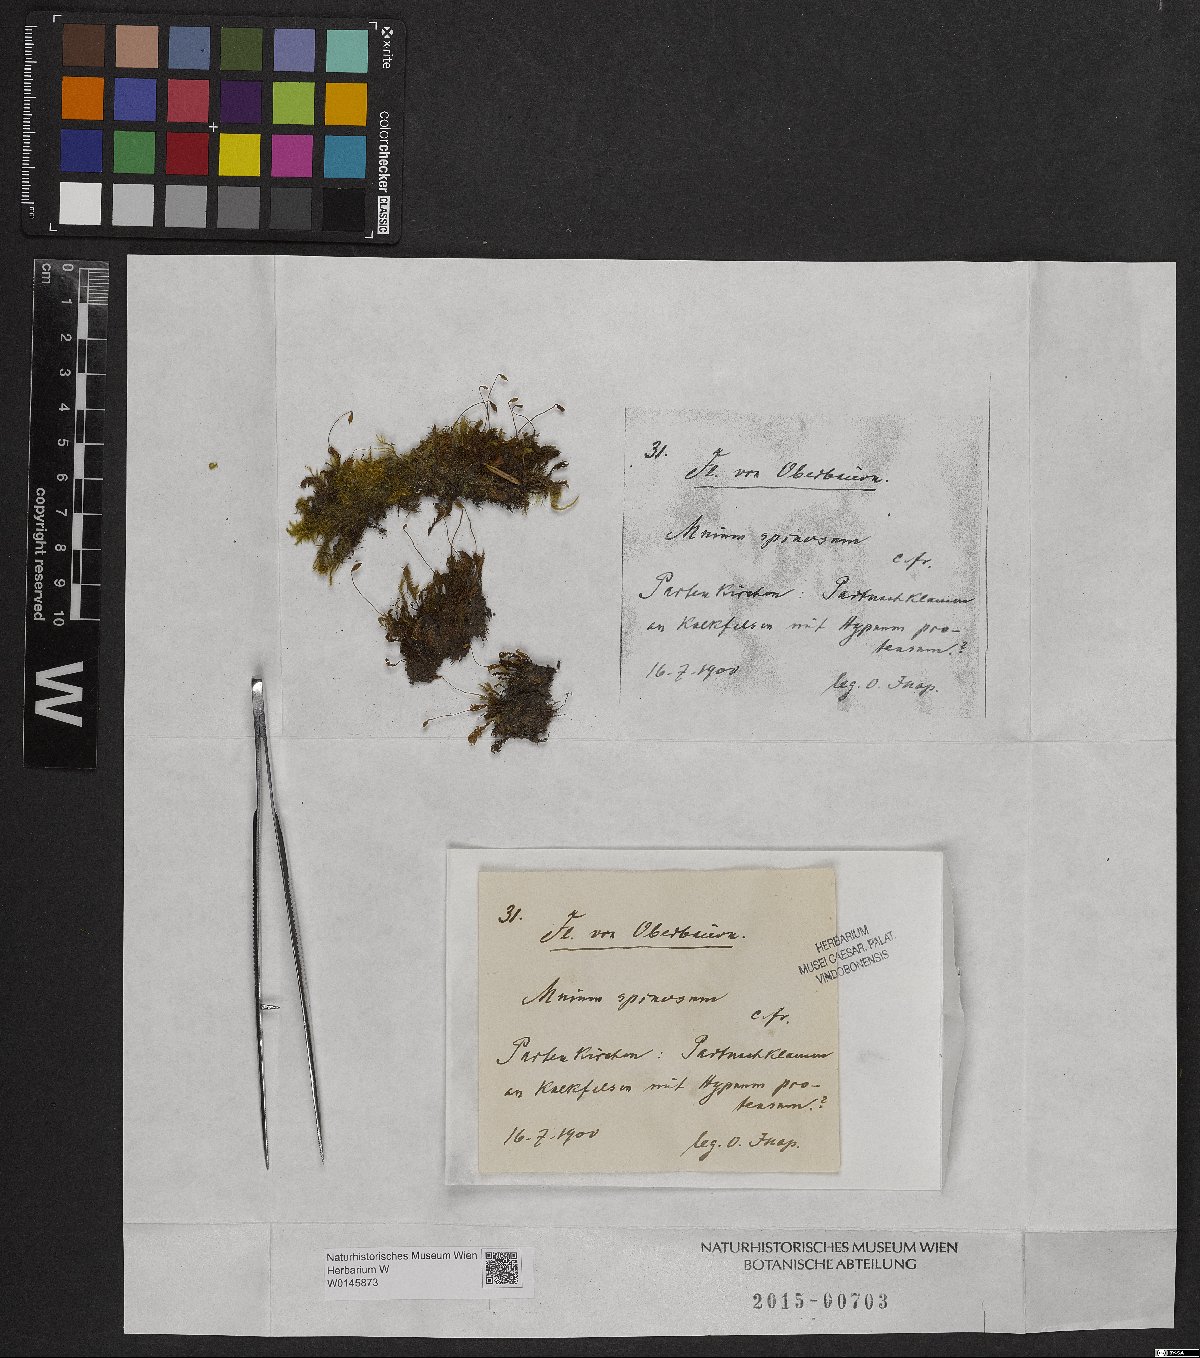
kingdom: Plantae
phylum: Bryophyta
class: Bryopsida
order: Bryales
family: Mniaceae
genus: Mnium
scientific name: Mnium spinosum
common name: Spinose thyme-moss
